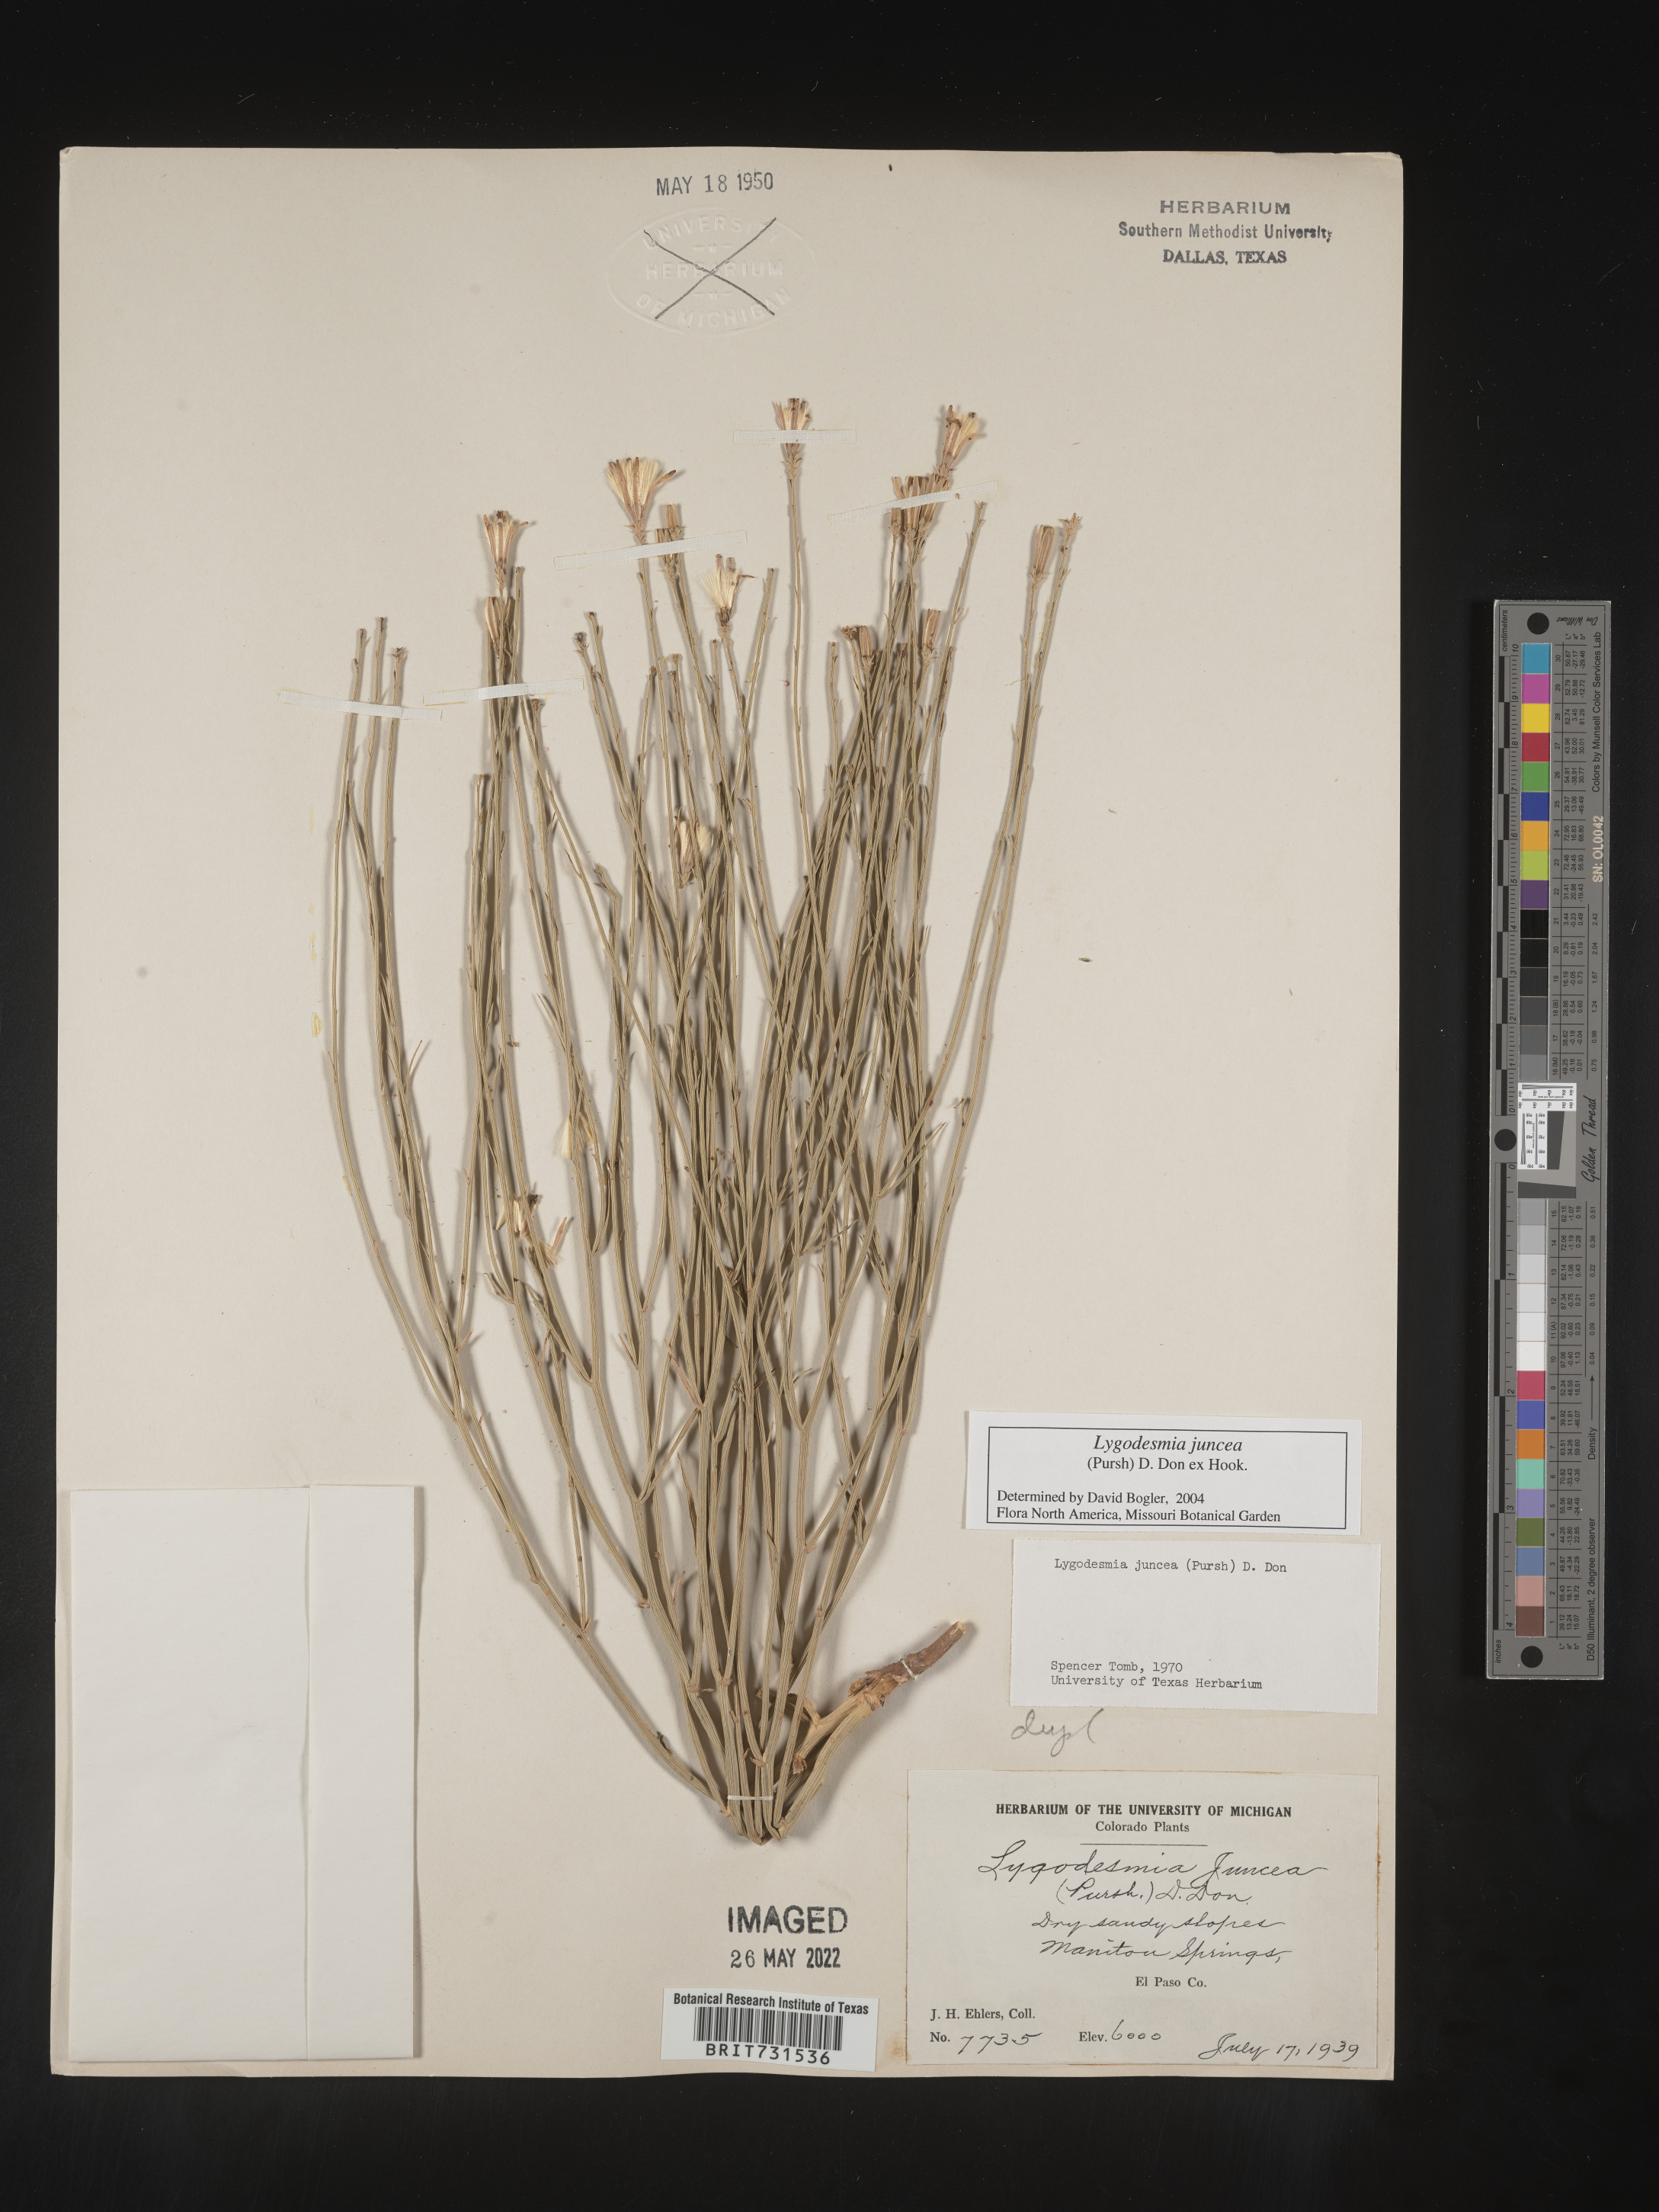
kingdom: Plantae
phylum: Tracheophyta
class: Magnoliopsida
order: Asterales
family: Asteraceae
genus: Lygodesmia
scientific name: Lygodesmia juncea
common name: Common skeletonweed
